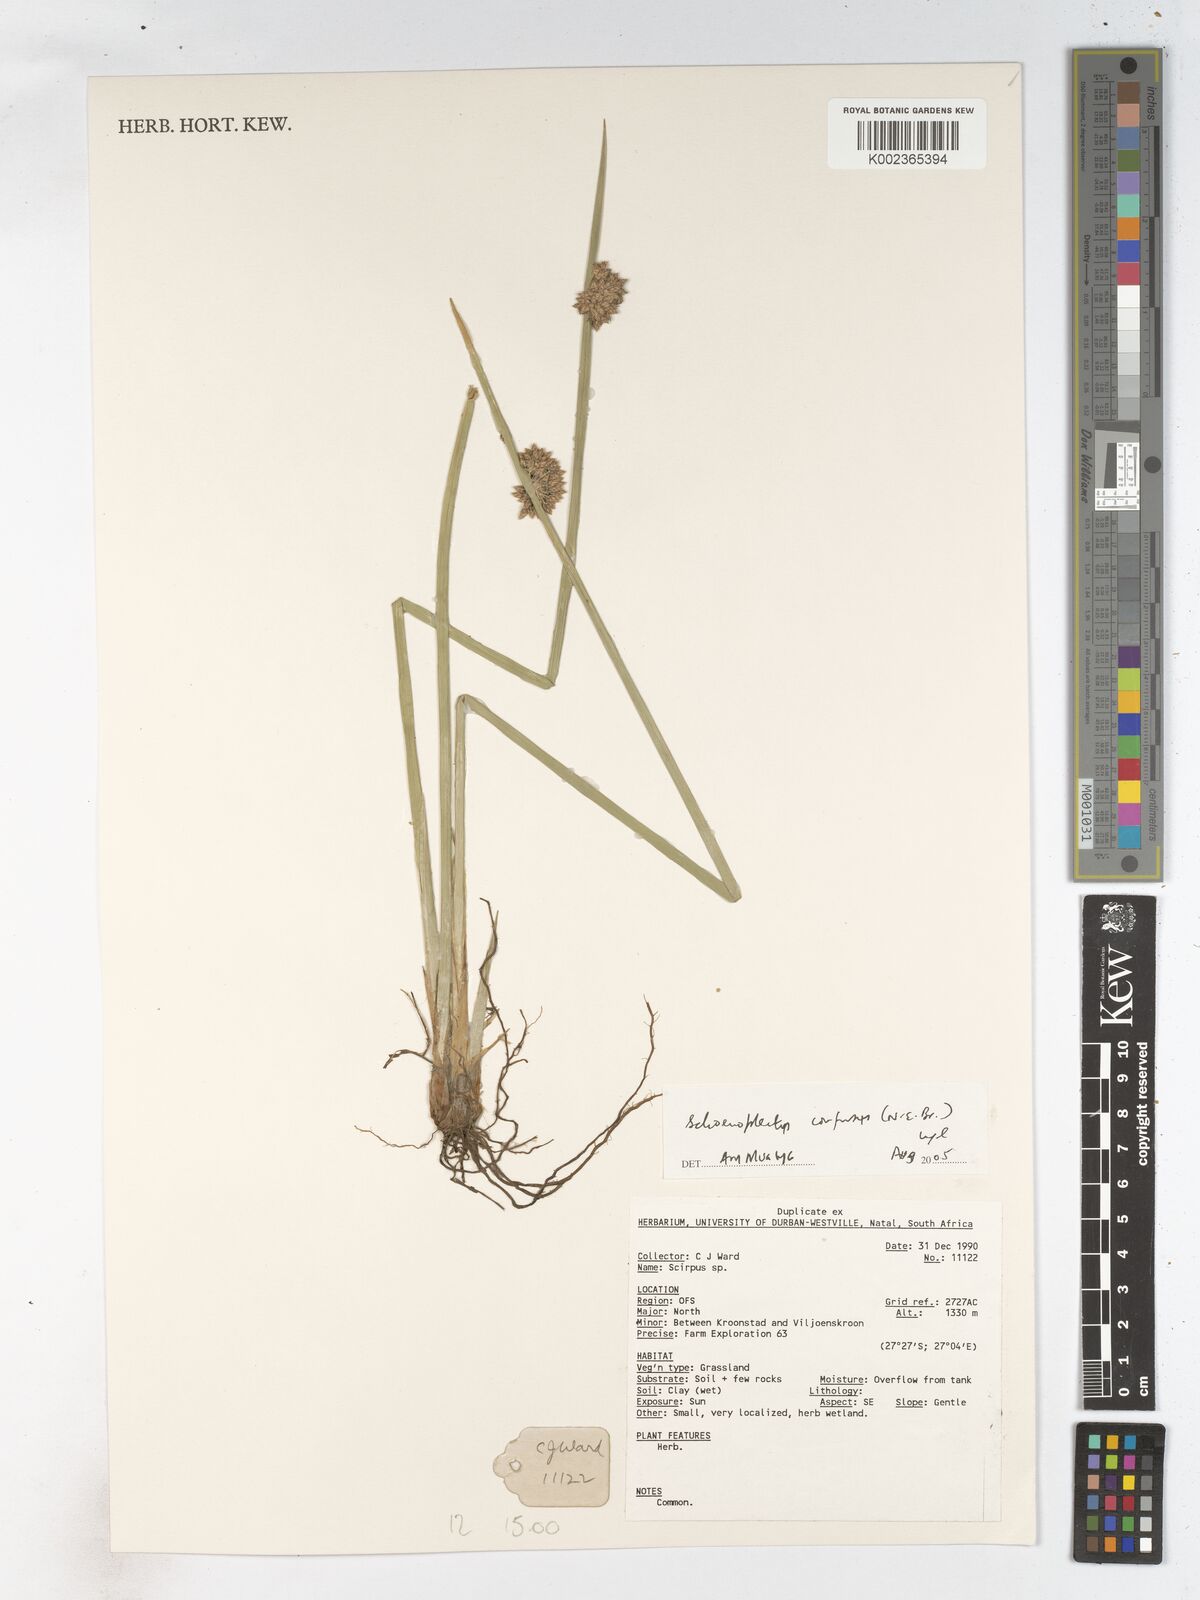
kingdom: Plantae
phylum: Tracheophyta
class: Liliopsida
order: Poales
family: Cyperaceae
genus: Schoenoplectiella
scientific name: Schoenoplectiella confusa
